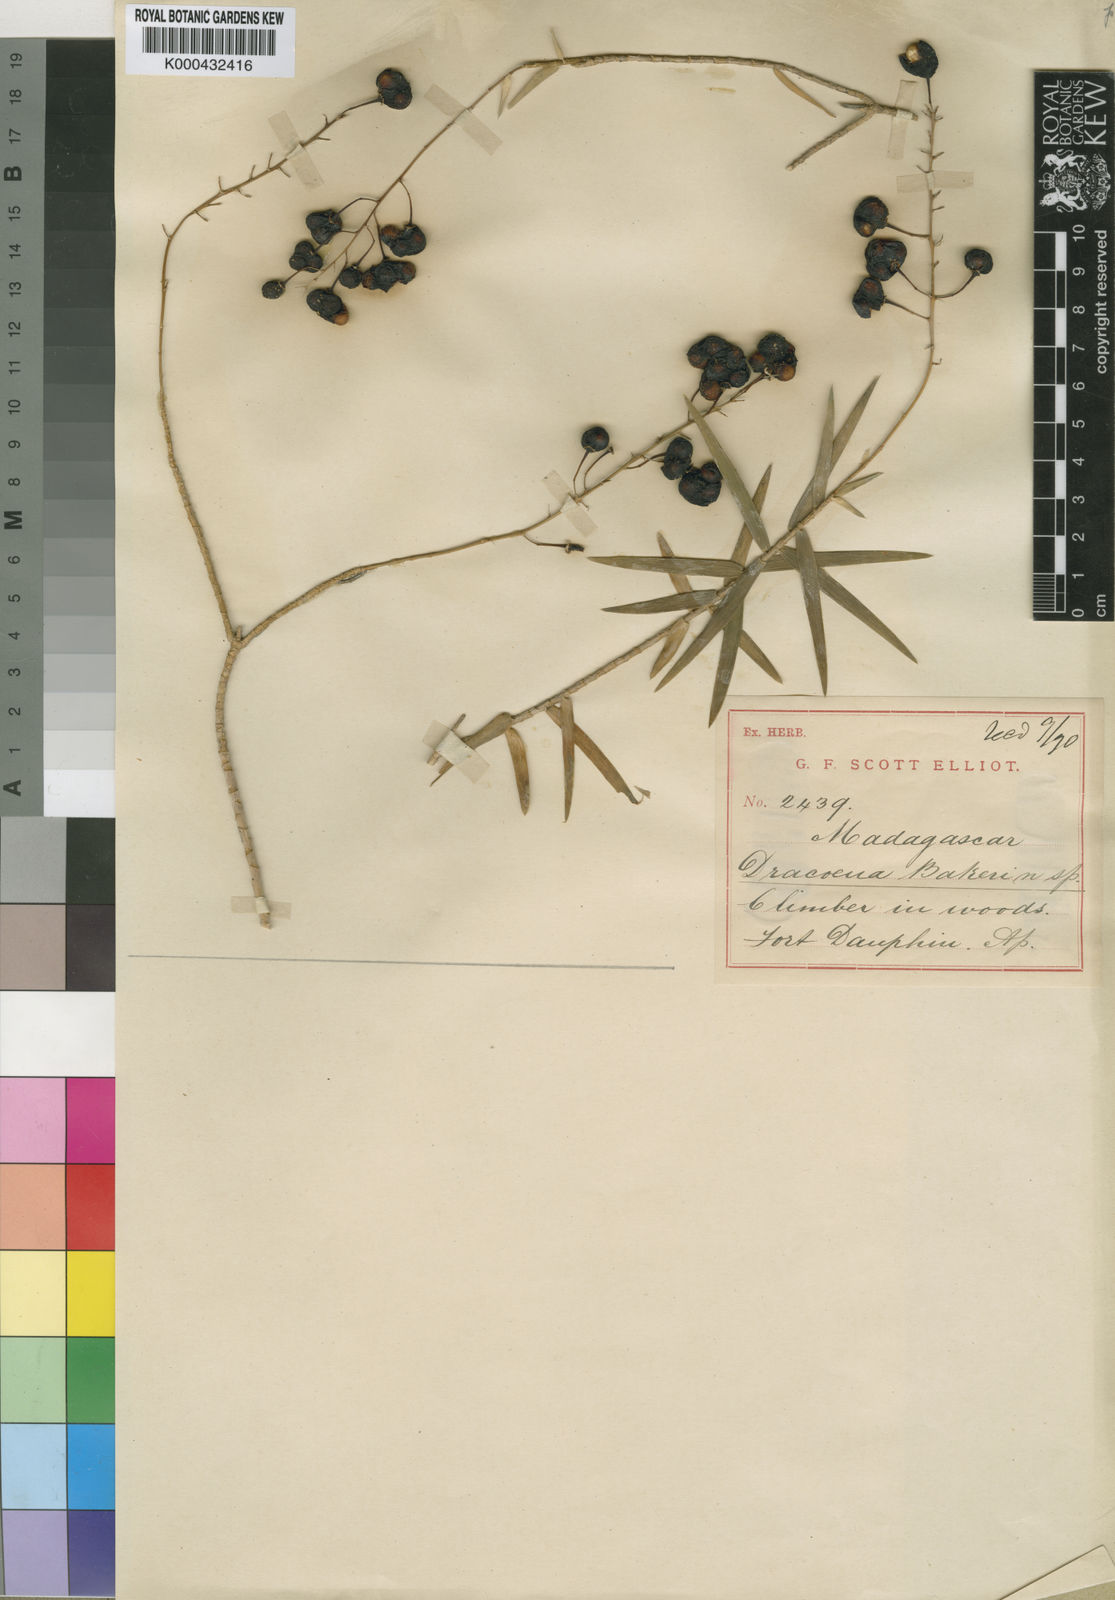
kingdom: Plantae
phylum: Tracheophyta
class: Liliopsida
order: Asparagales
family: Asparagaceae
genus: Dracaena
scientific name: Dracaena reflexa
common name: Song-of-india
